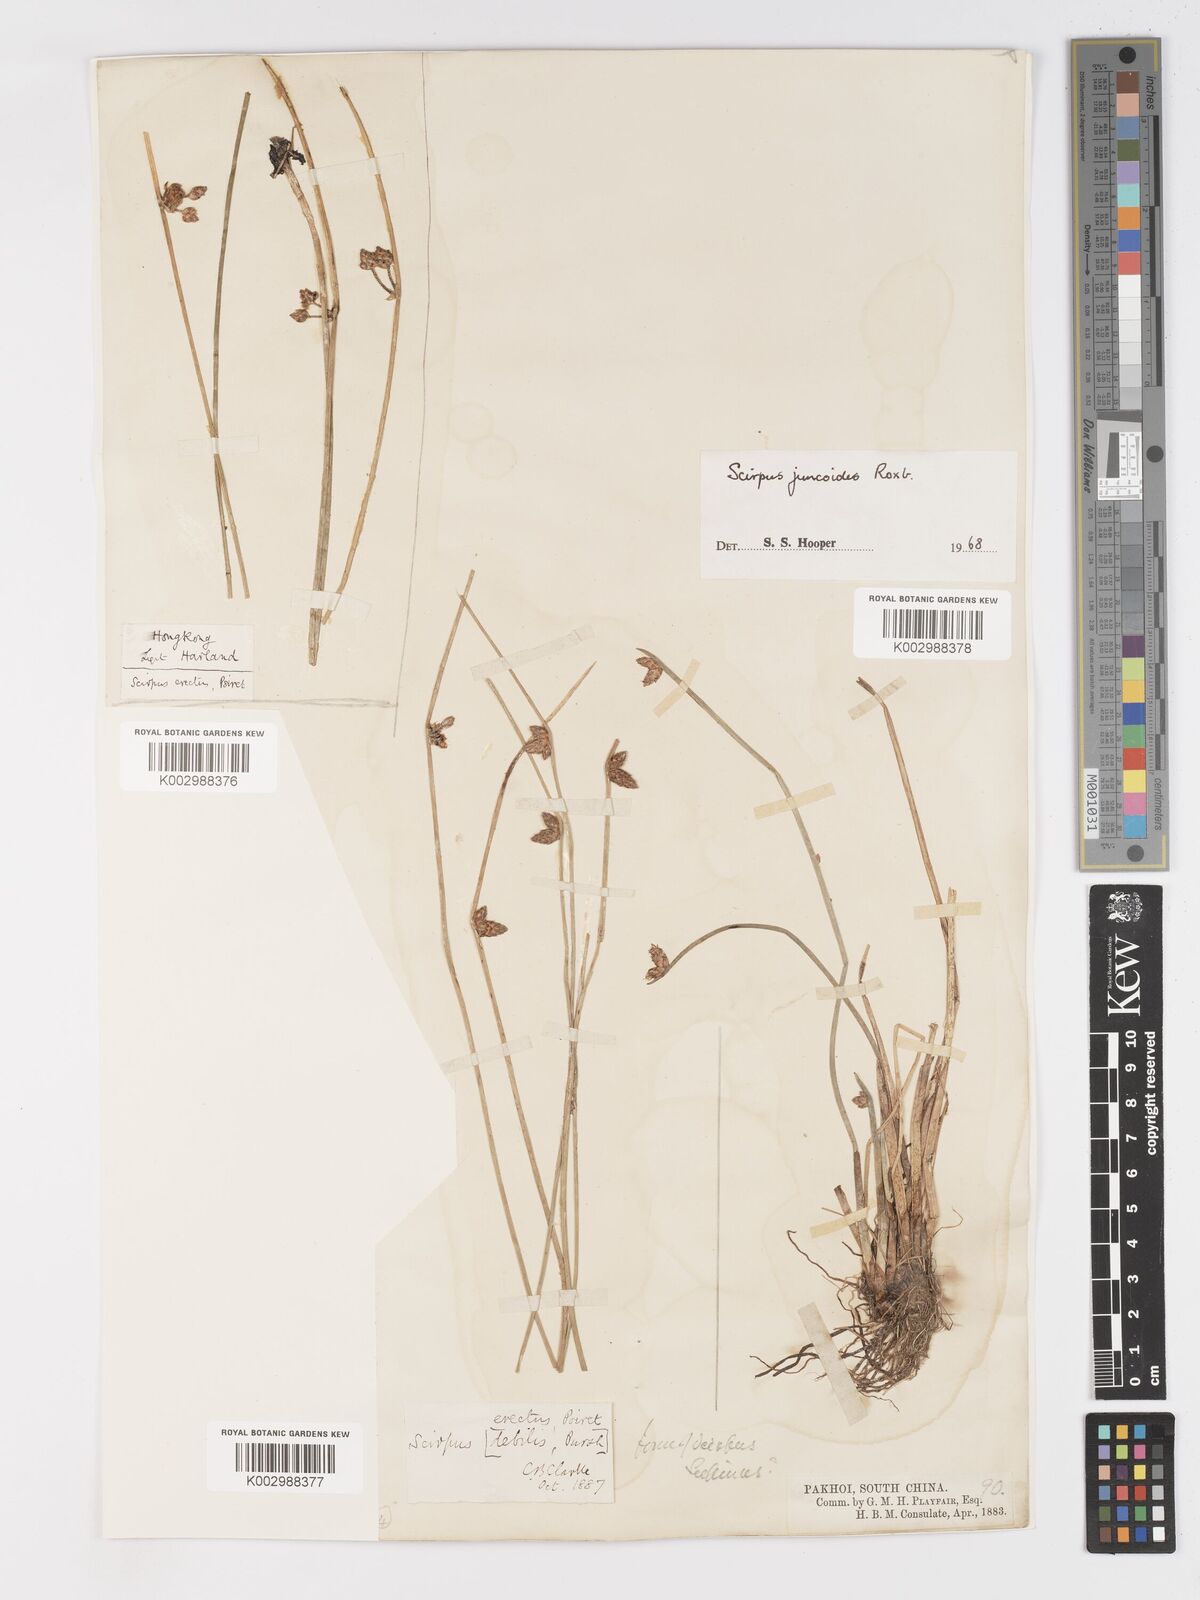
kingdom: Plantae
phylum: Tracheophyta
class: Liliopsida
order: Poales
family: Cyperaceae
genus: Schoenoplectiella
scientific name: Schoenoplectiella juncoides
